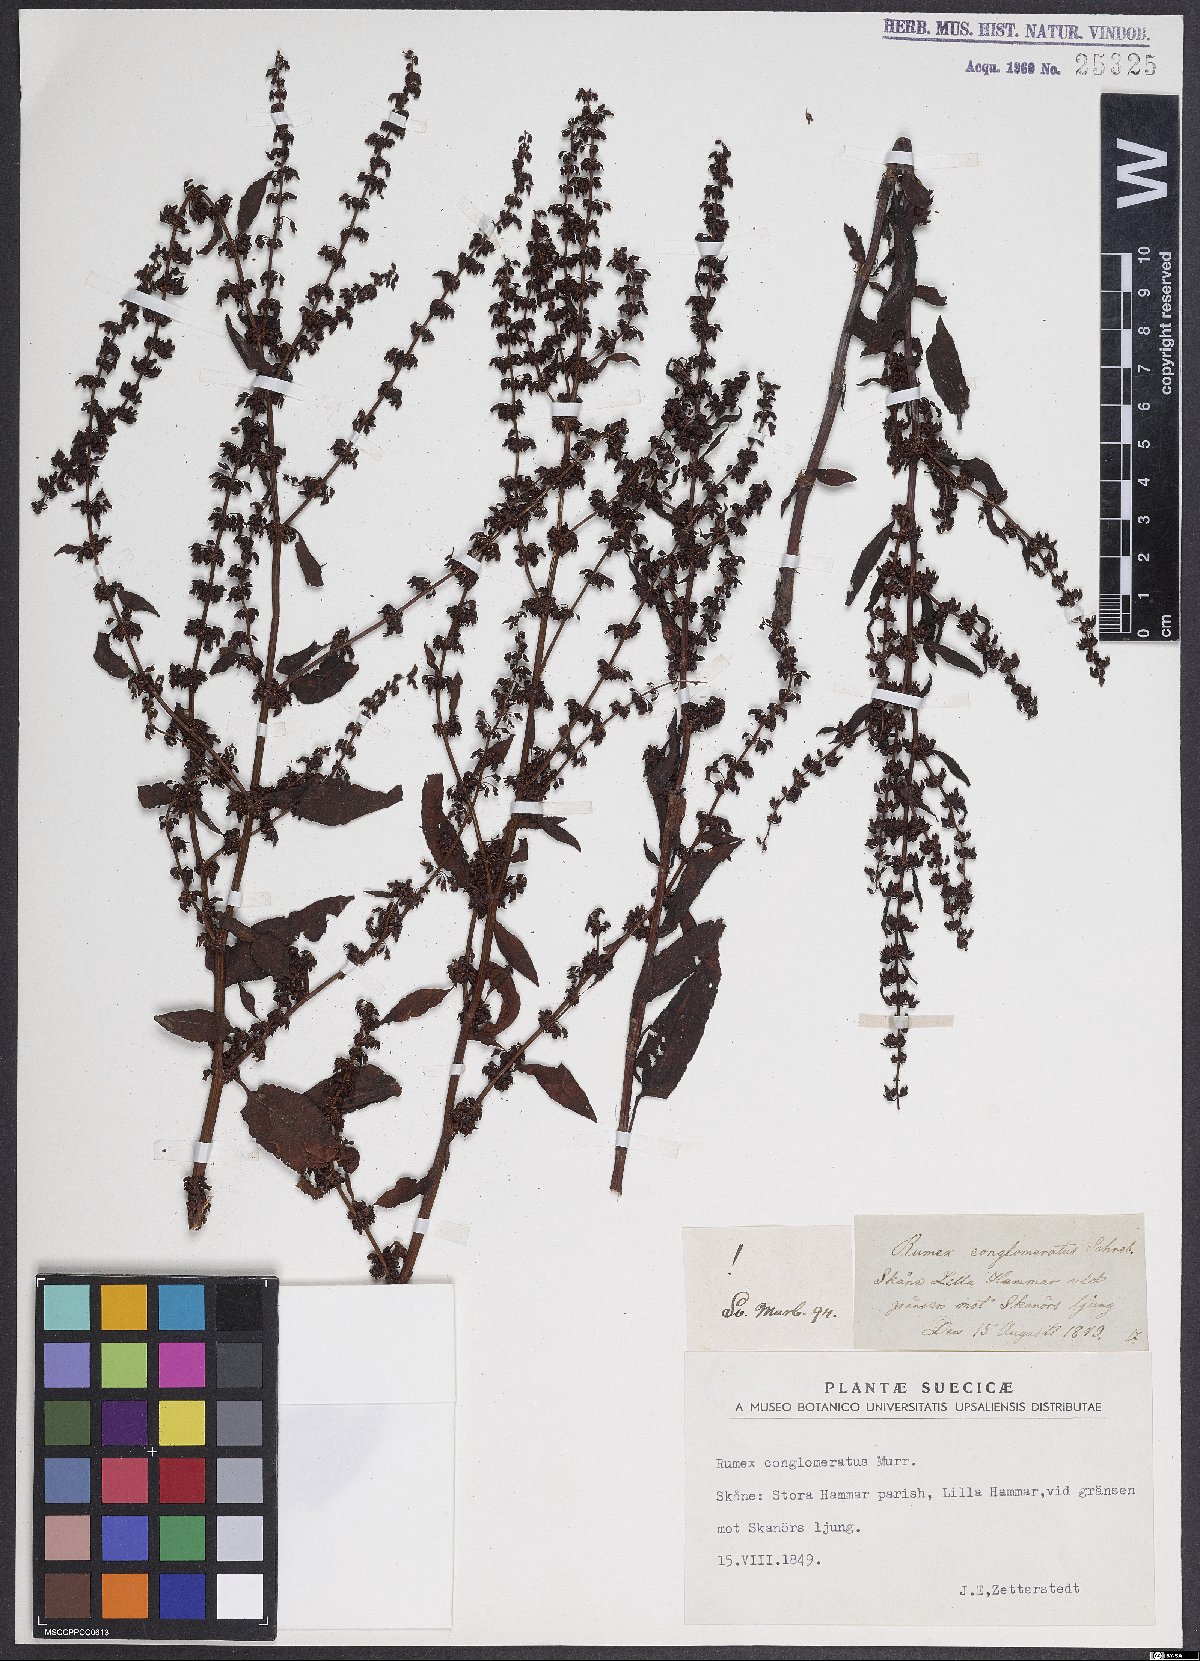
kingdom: Plantae
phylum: Tracheophyta
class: Magnoliopsida
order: Caryophyllales
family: Polygonaceae
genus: Rumex
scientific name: Rumex conglomeratus
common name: Clustered dock
